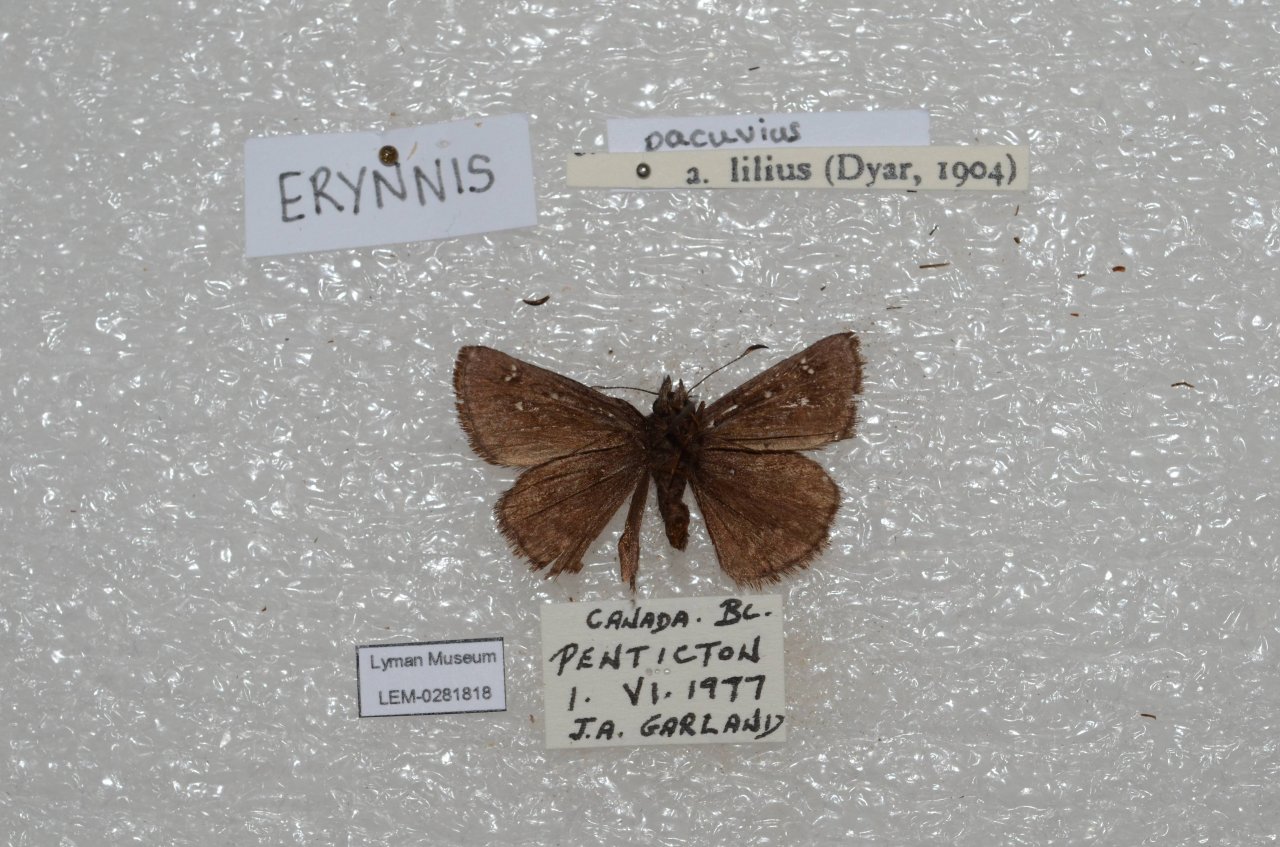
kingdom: Animalia
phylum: Arthropoda
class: Insecta
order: Lepidoptera
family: Hesperiidae
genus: Erynnis
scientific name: Erynnis pacuvius
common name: Pacuvius Duskywing
